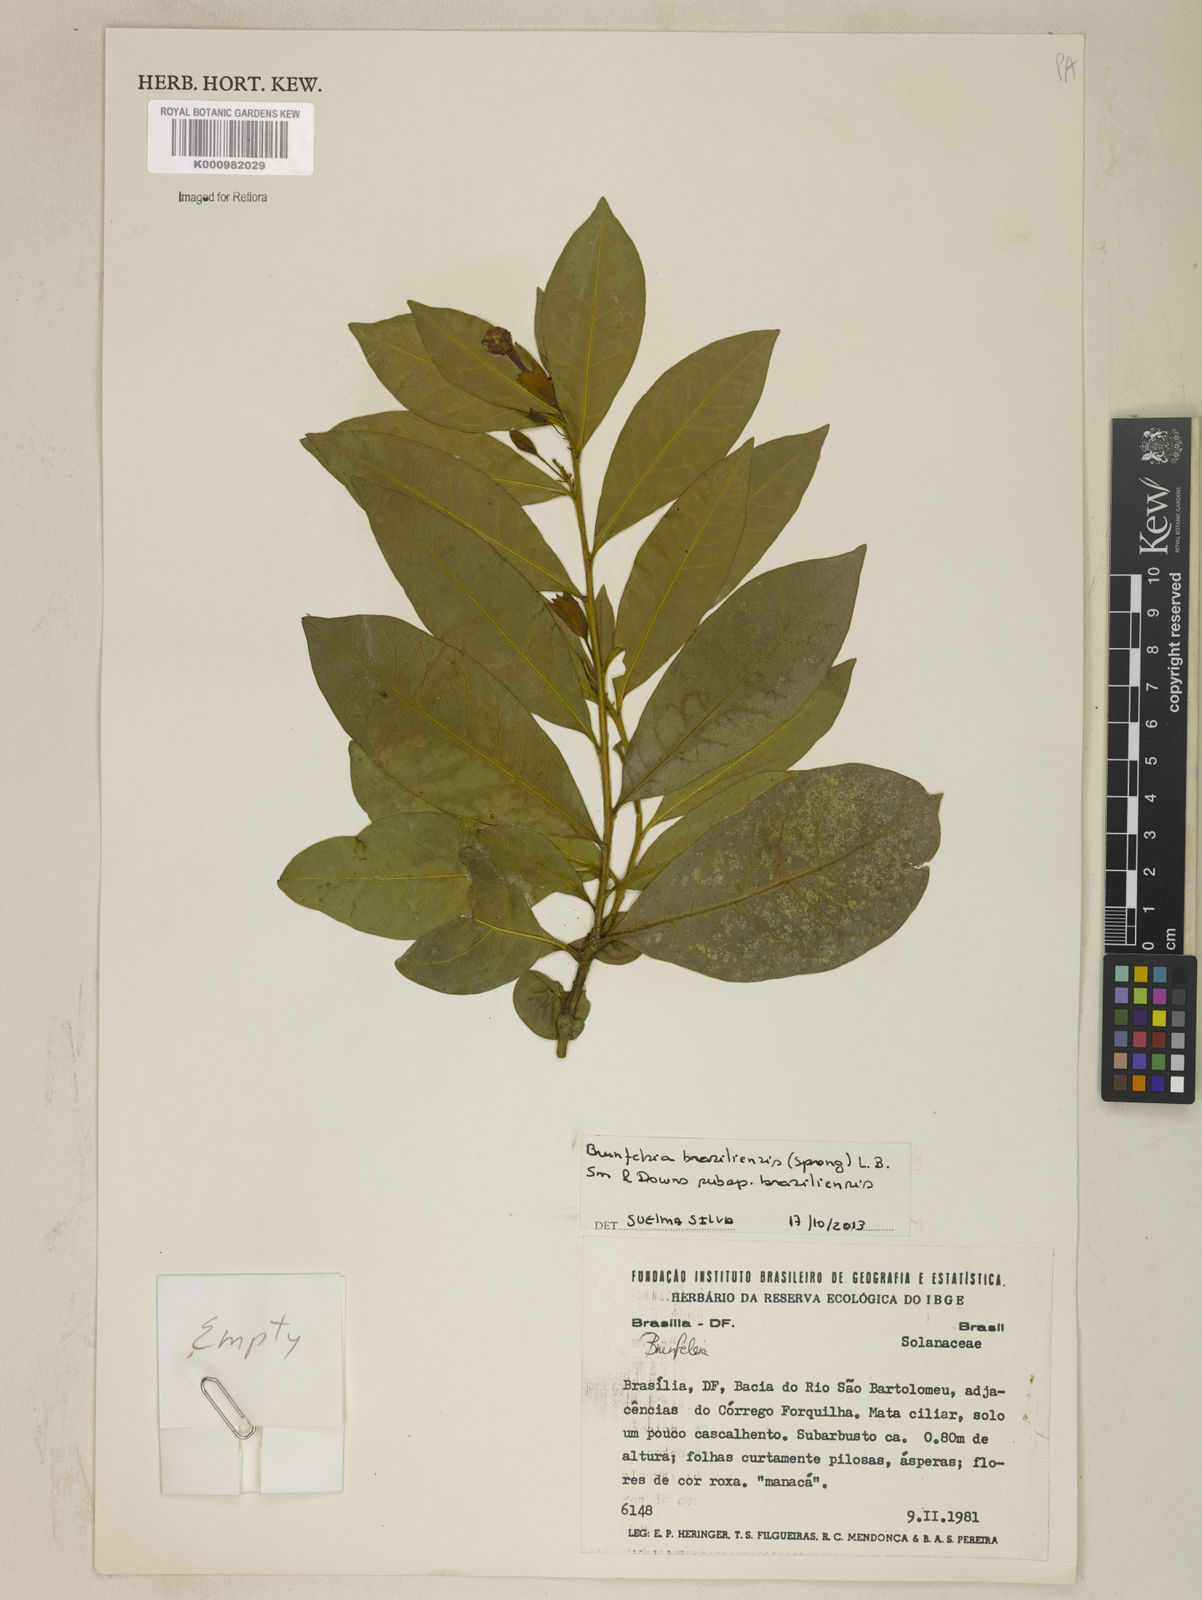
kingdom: Plantae
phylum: Tracheophyta
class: Magnoliopsida
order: Solanales
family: Solanaceae
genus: Brunfelsia
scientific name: Brunfelsia brasiliensis
